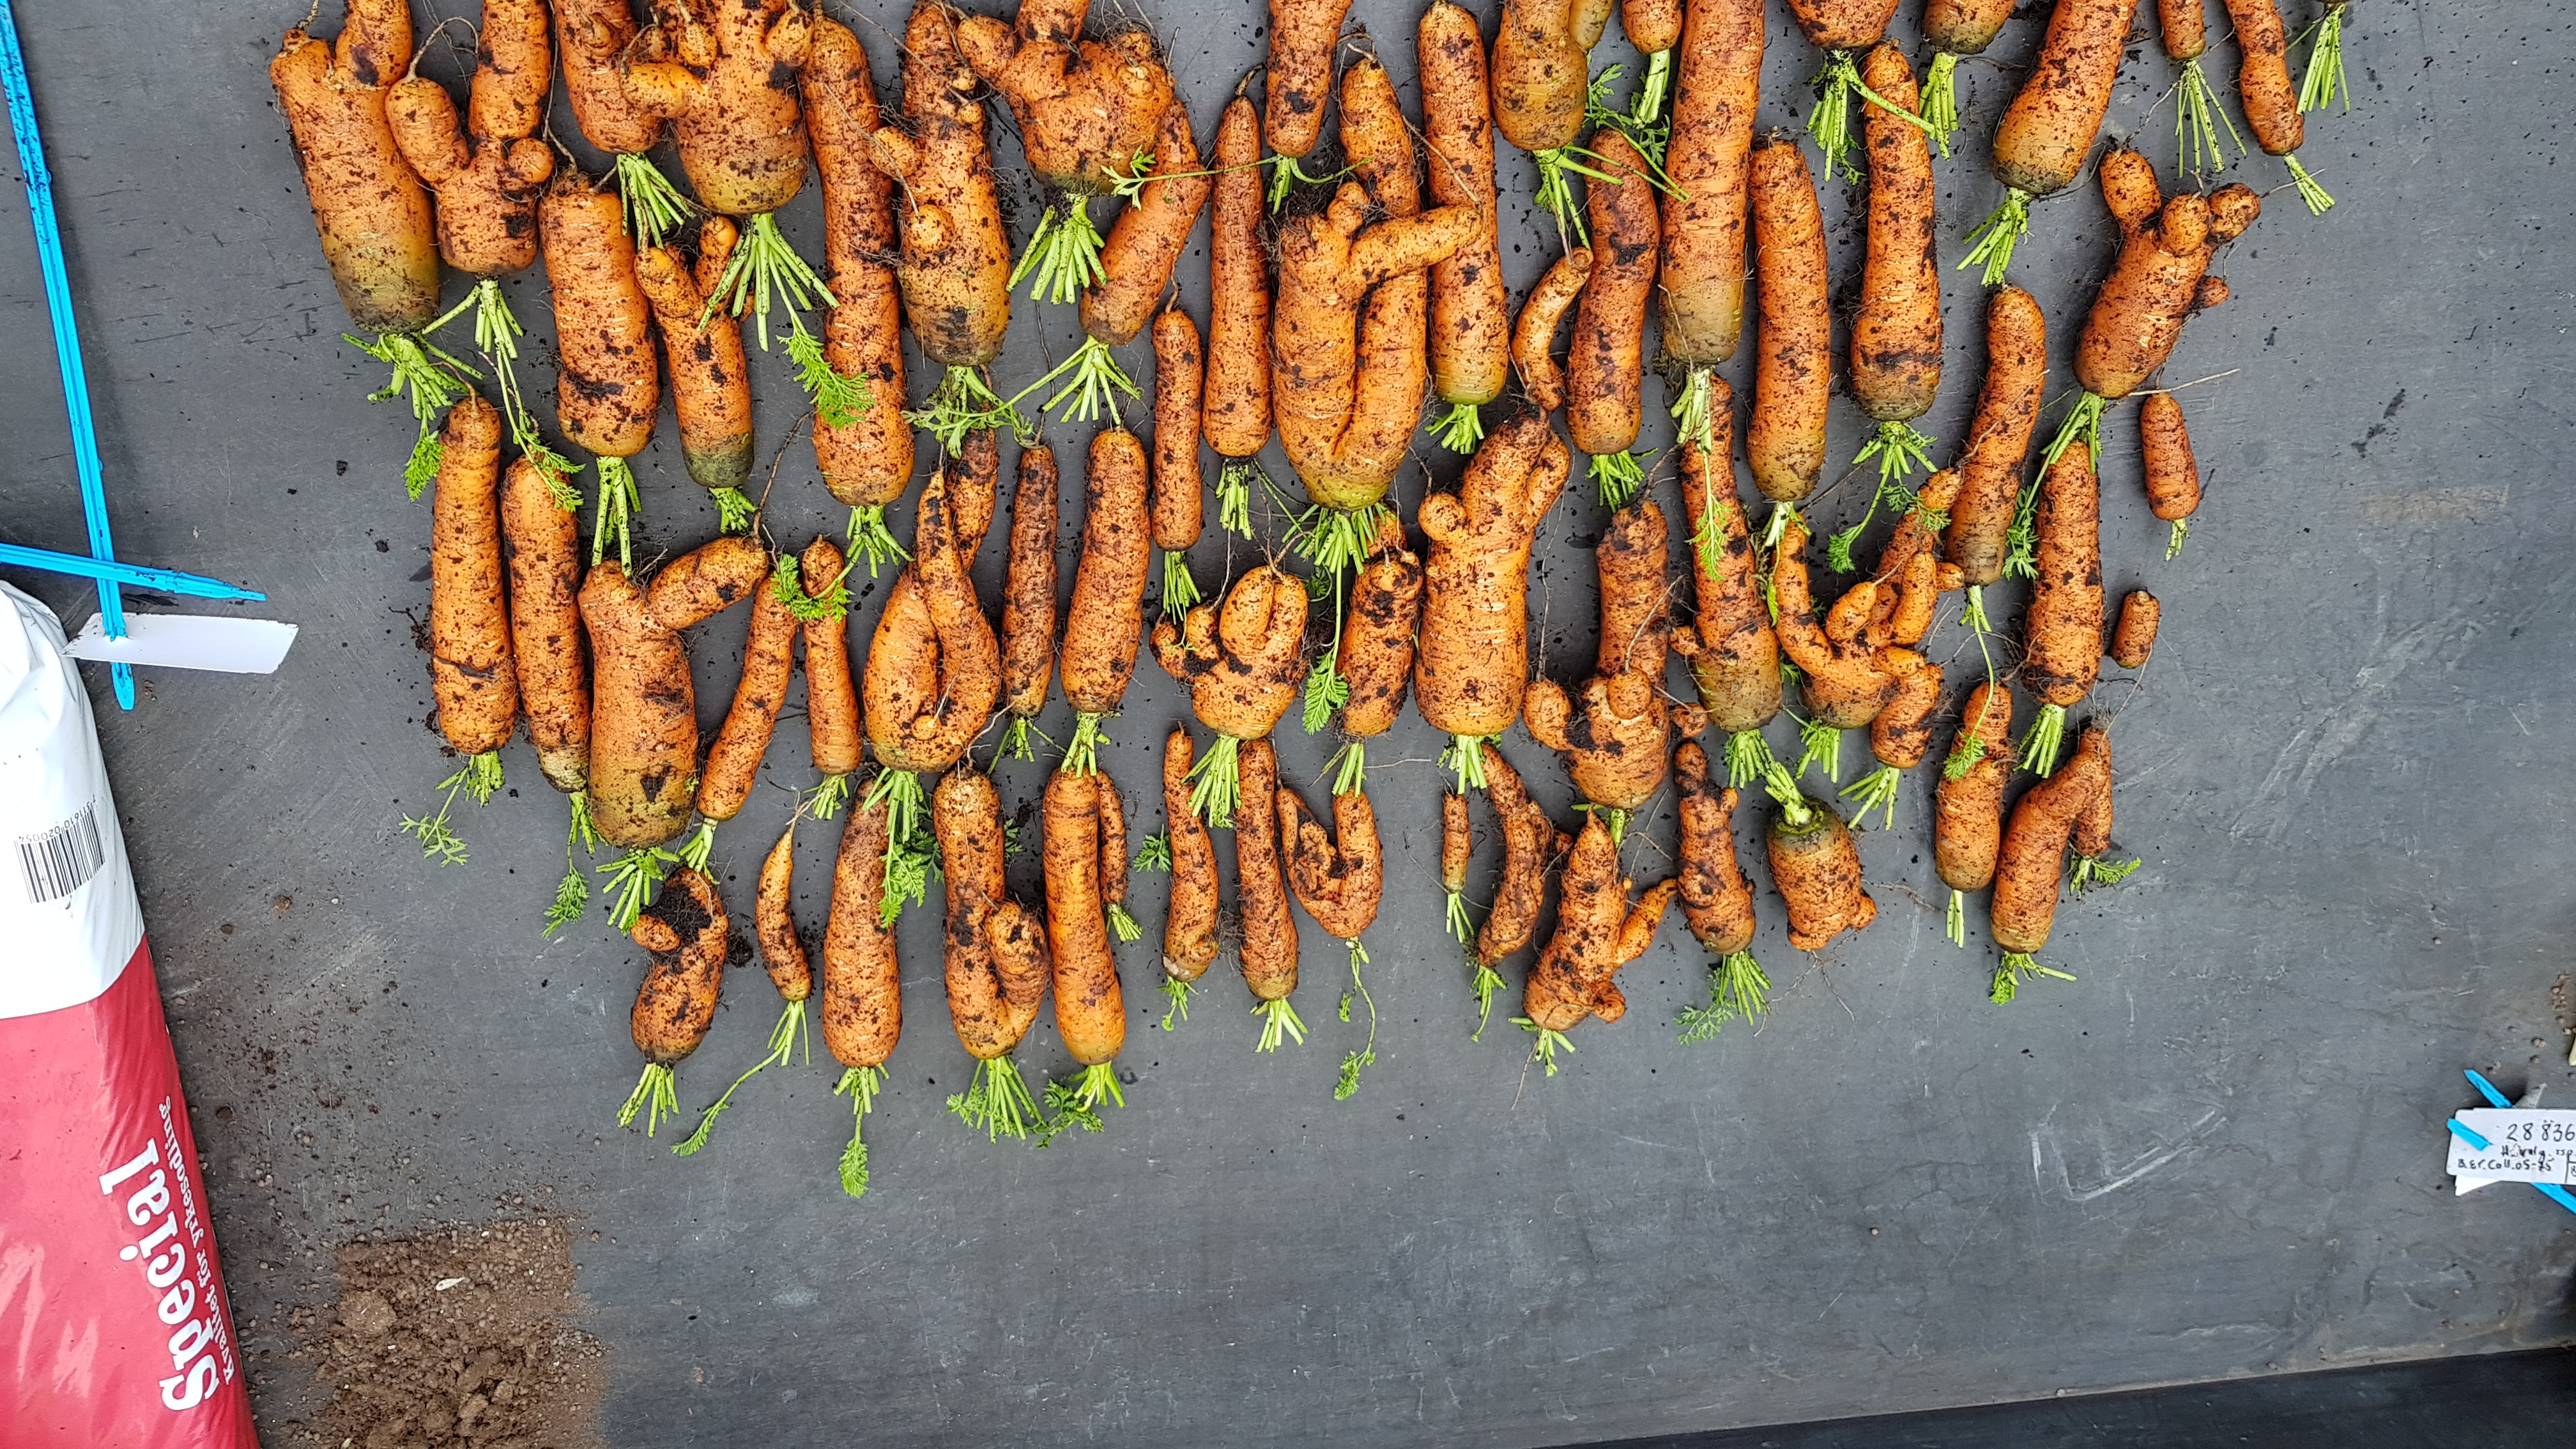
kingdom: Plantae
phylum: Tracheophyta
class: Magnoliopsida
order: Apiales
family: Apiaceae
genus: Daucus
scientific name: Daucus carota
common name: Wild carrot
